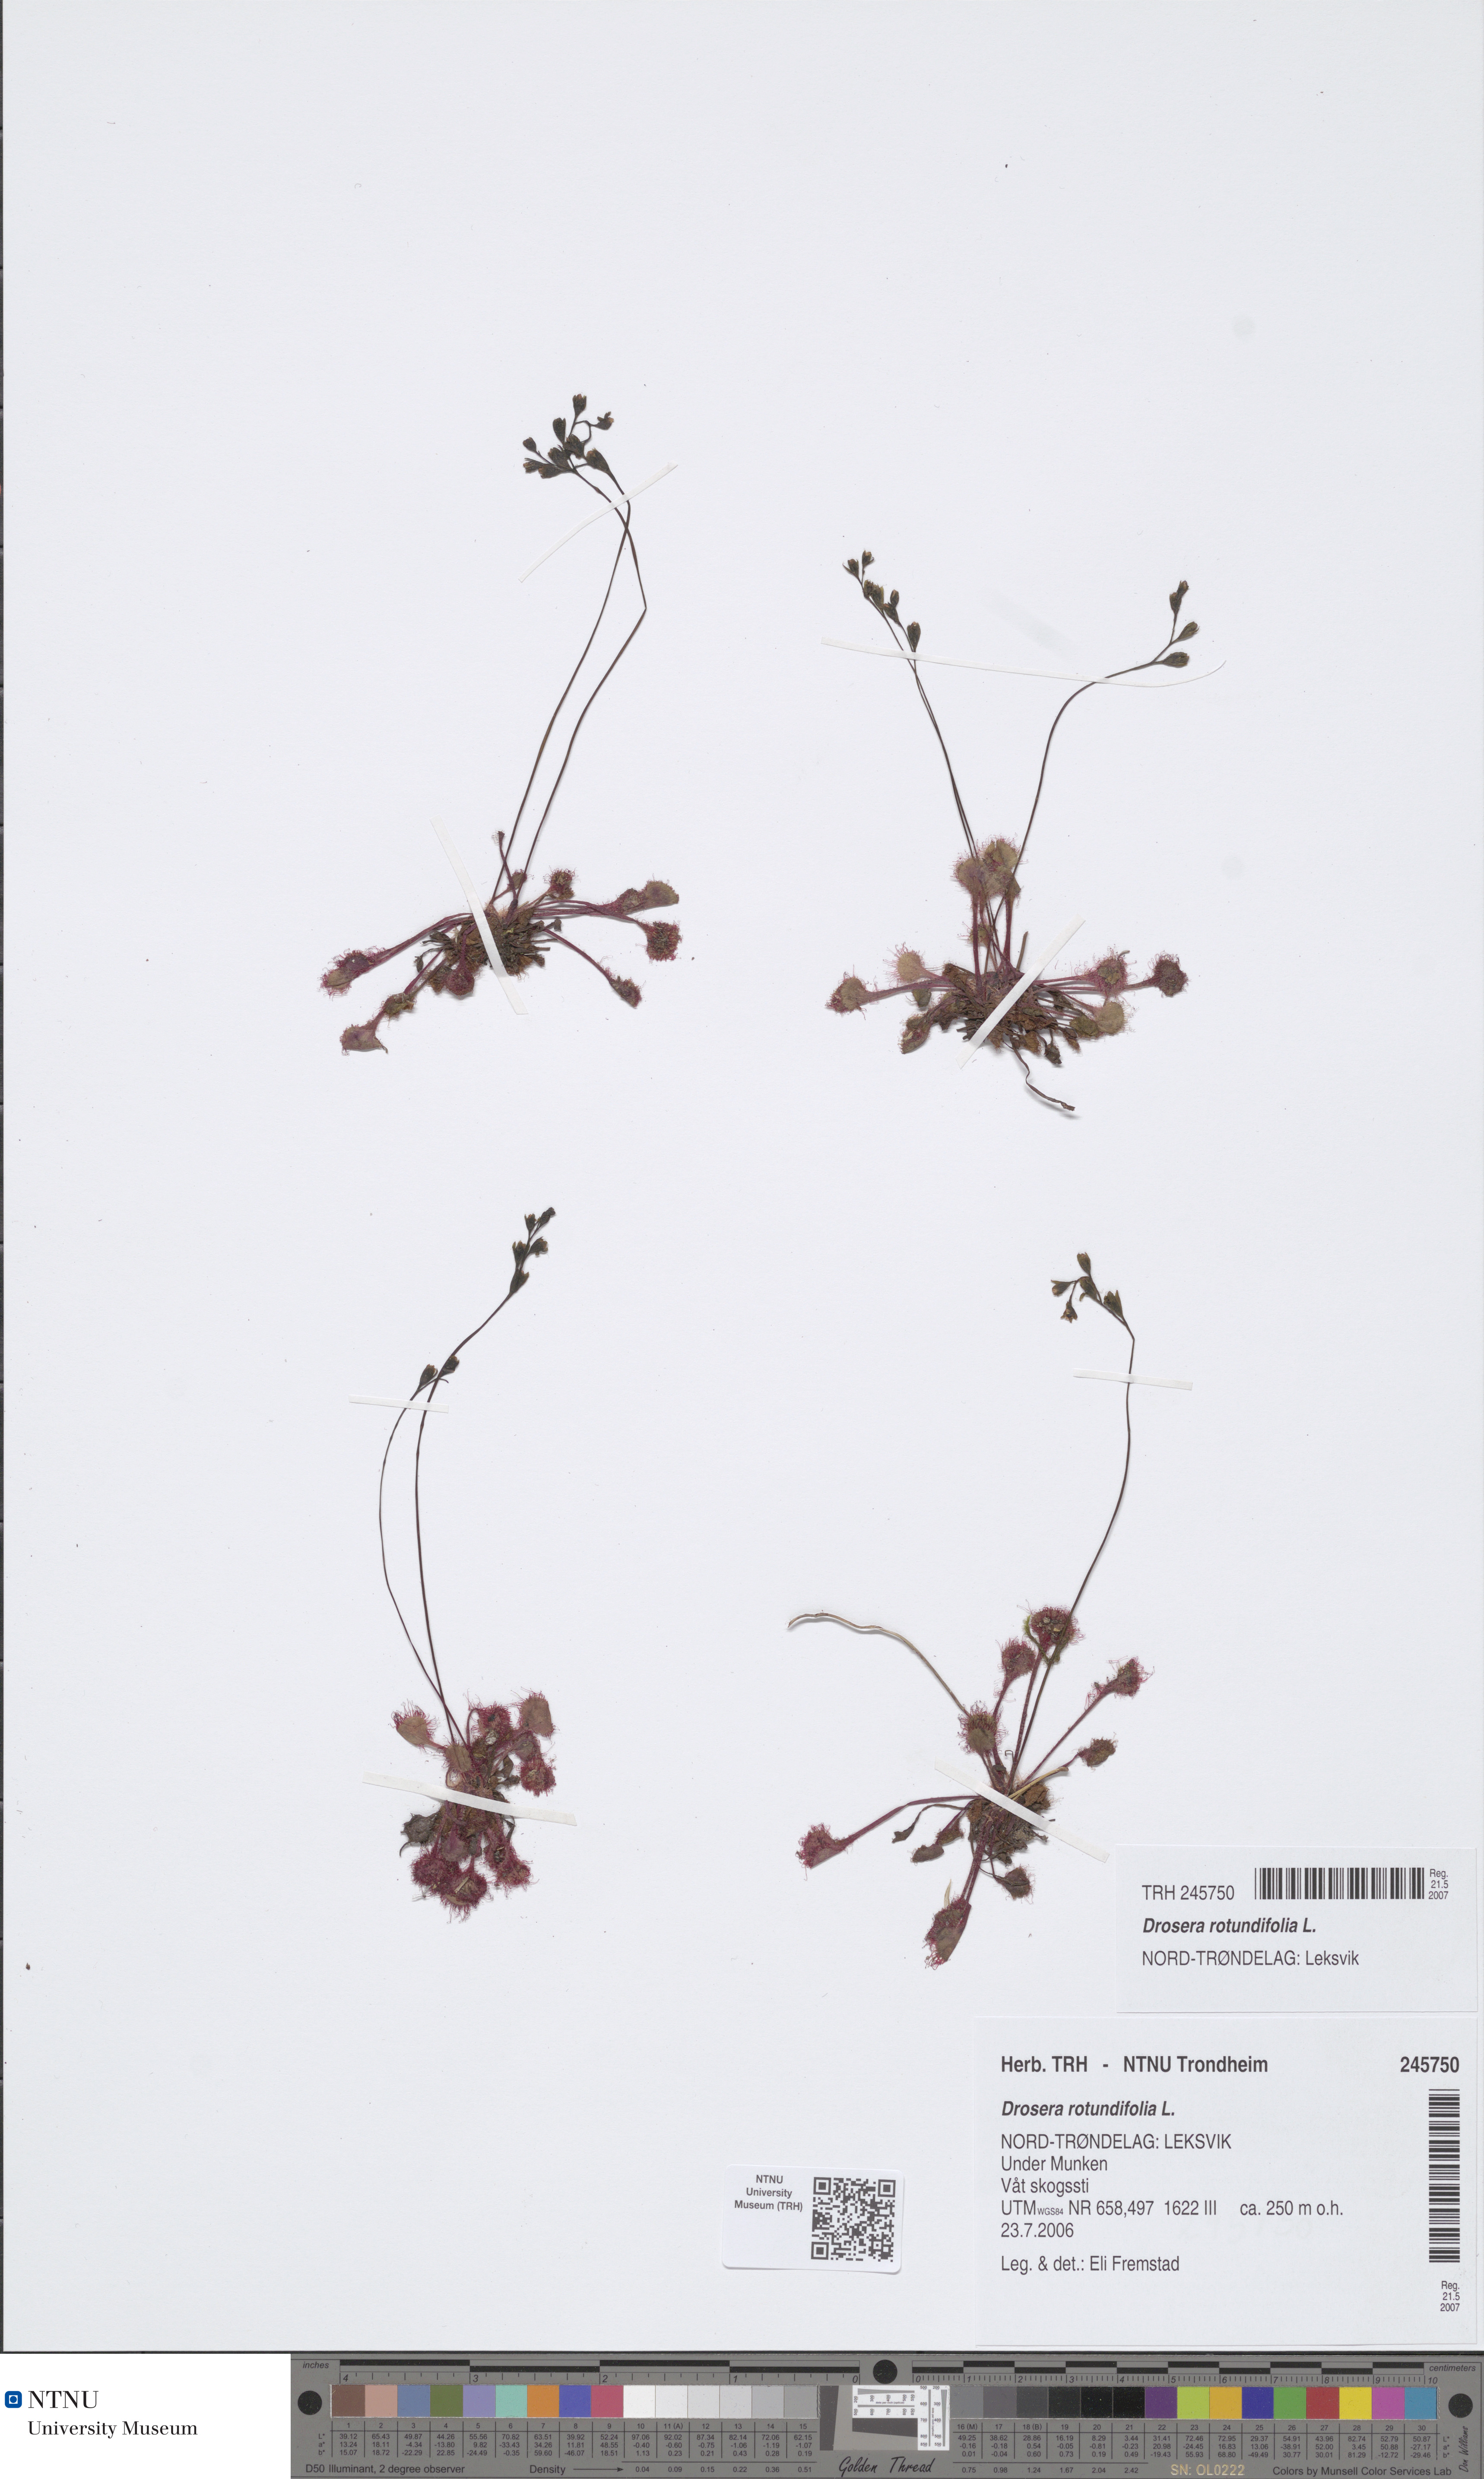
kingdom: Plantae
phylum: Tracheophyta
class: Magnoliopsida
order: Caryophyllales
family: Droseraceae
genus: Drosera
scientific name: Drosera rotundifolia
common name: Round-leaved sundew
